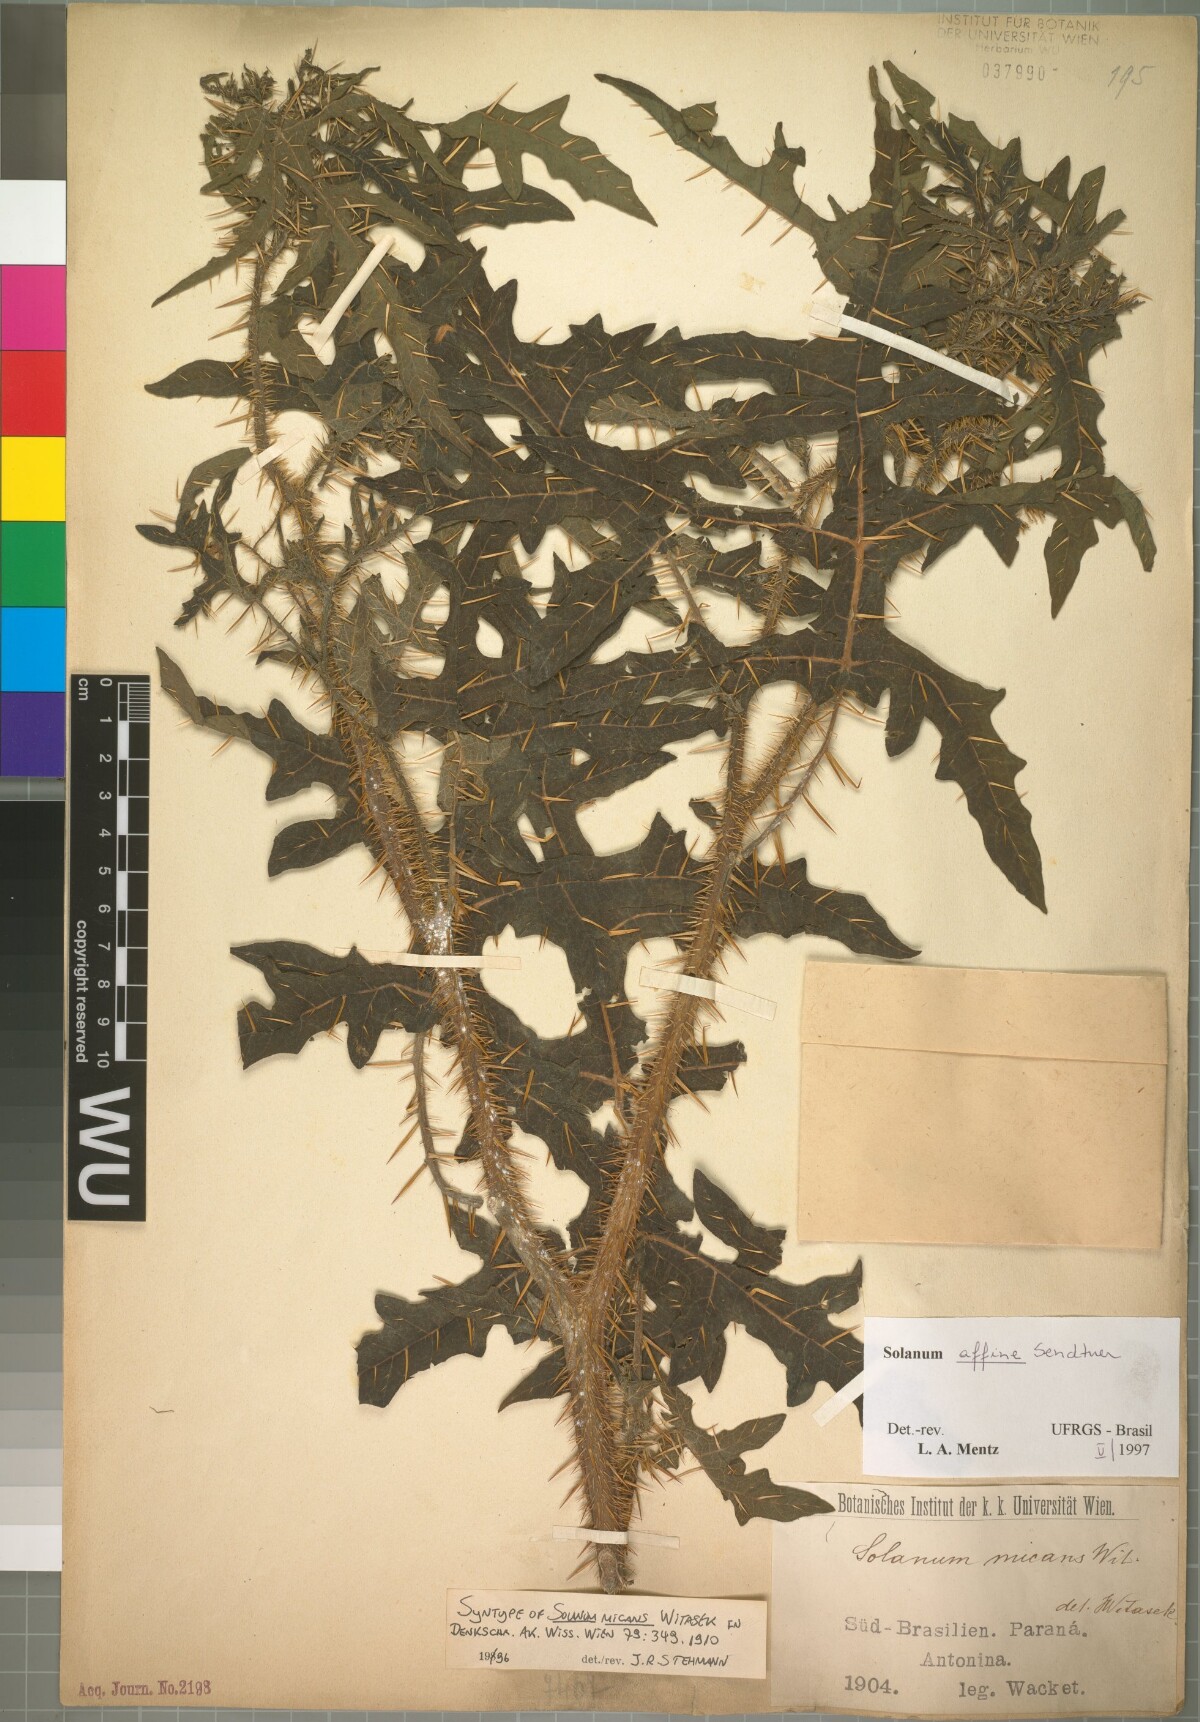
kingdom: Plantae
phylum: Tracheophyta
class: Magnoliopsida
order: Solanales
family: Solanaceae
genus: Solanum
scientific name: Solanum affine
